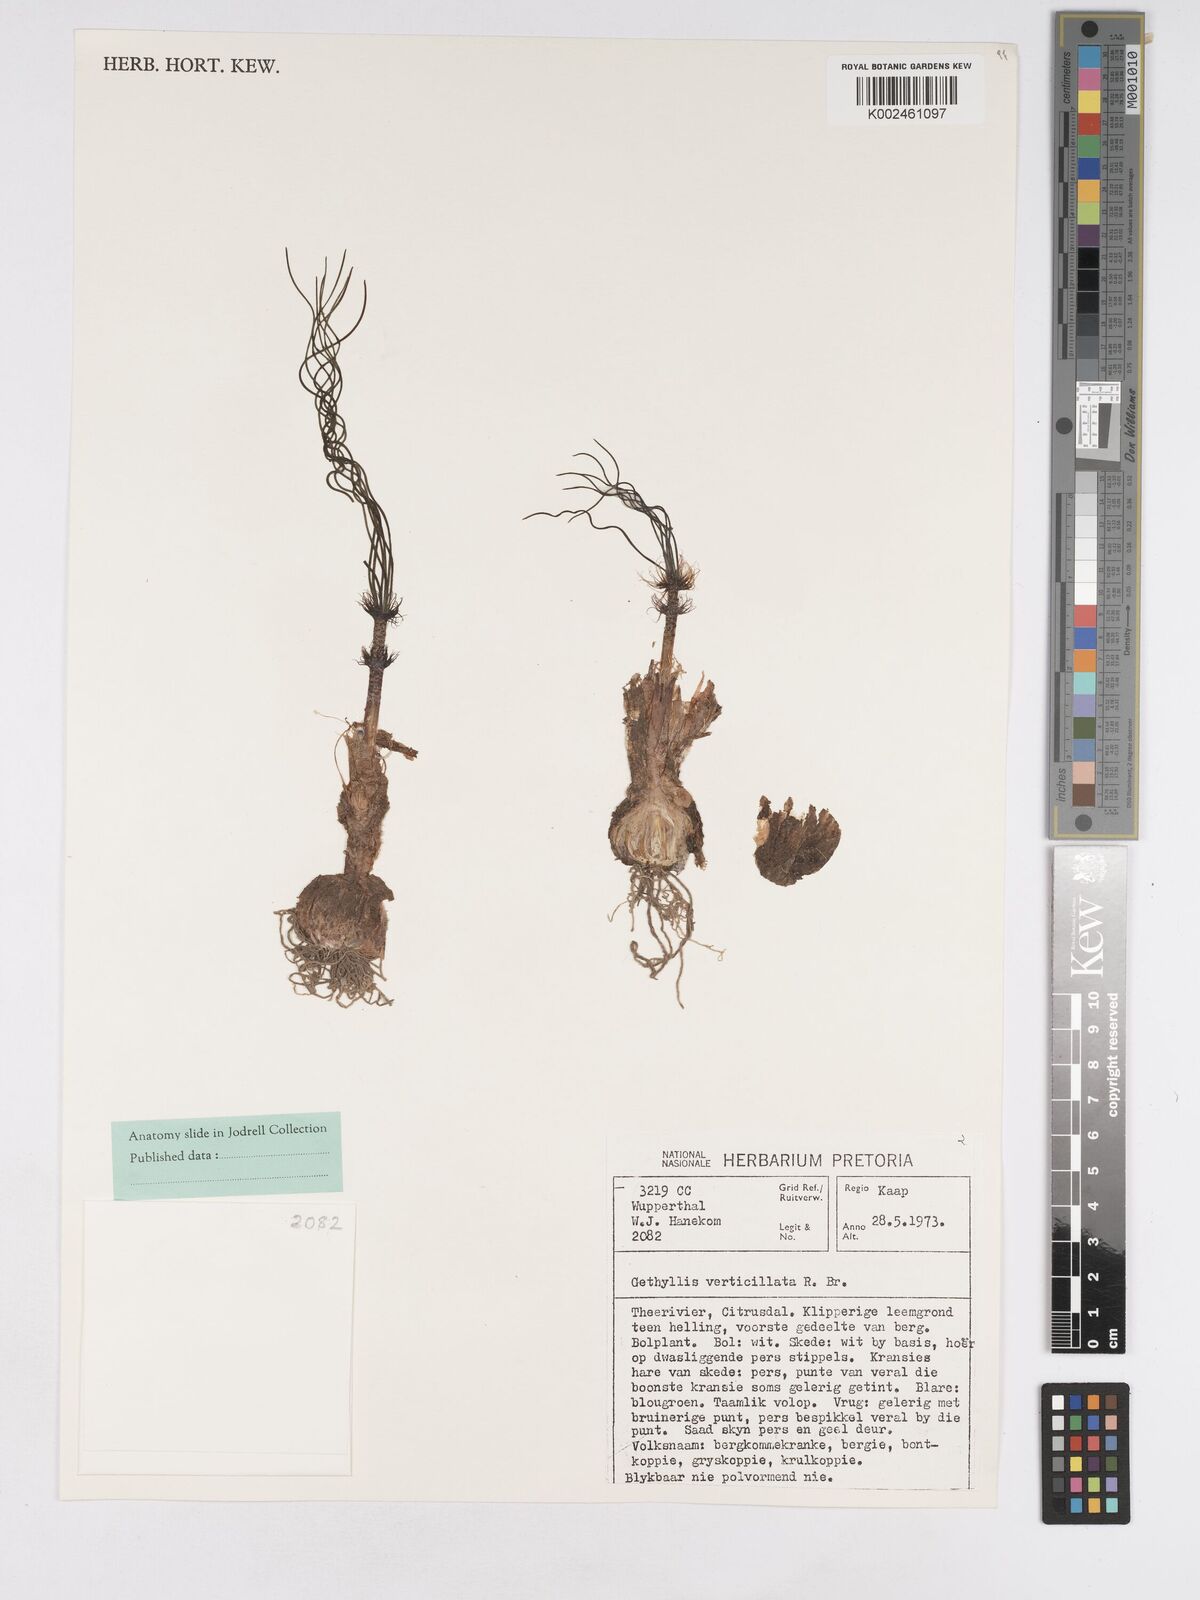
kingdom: Plantae
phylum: Tracheophyta
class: Liliopsida
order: Asparagales
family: Amaryllidaceae
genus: Gethyllis
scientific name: Gethyllis verticillata
